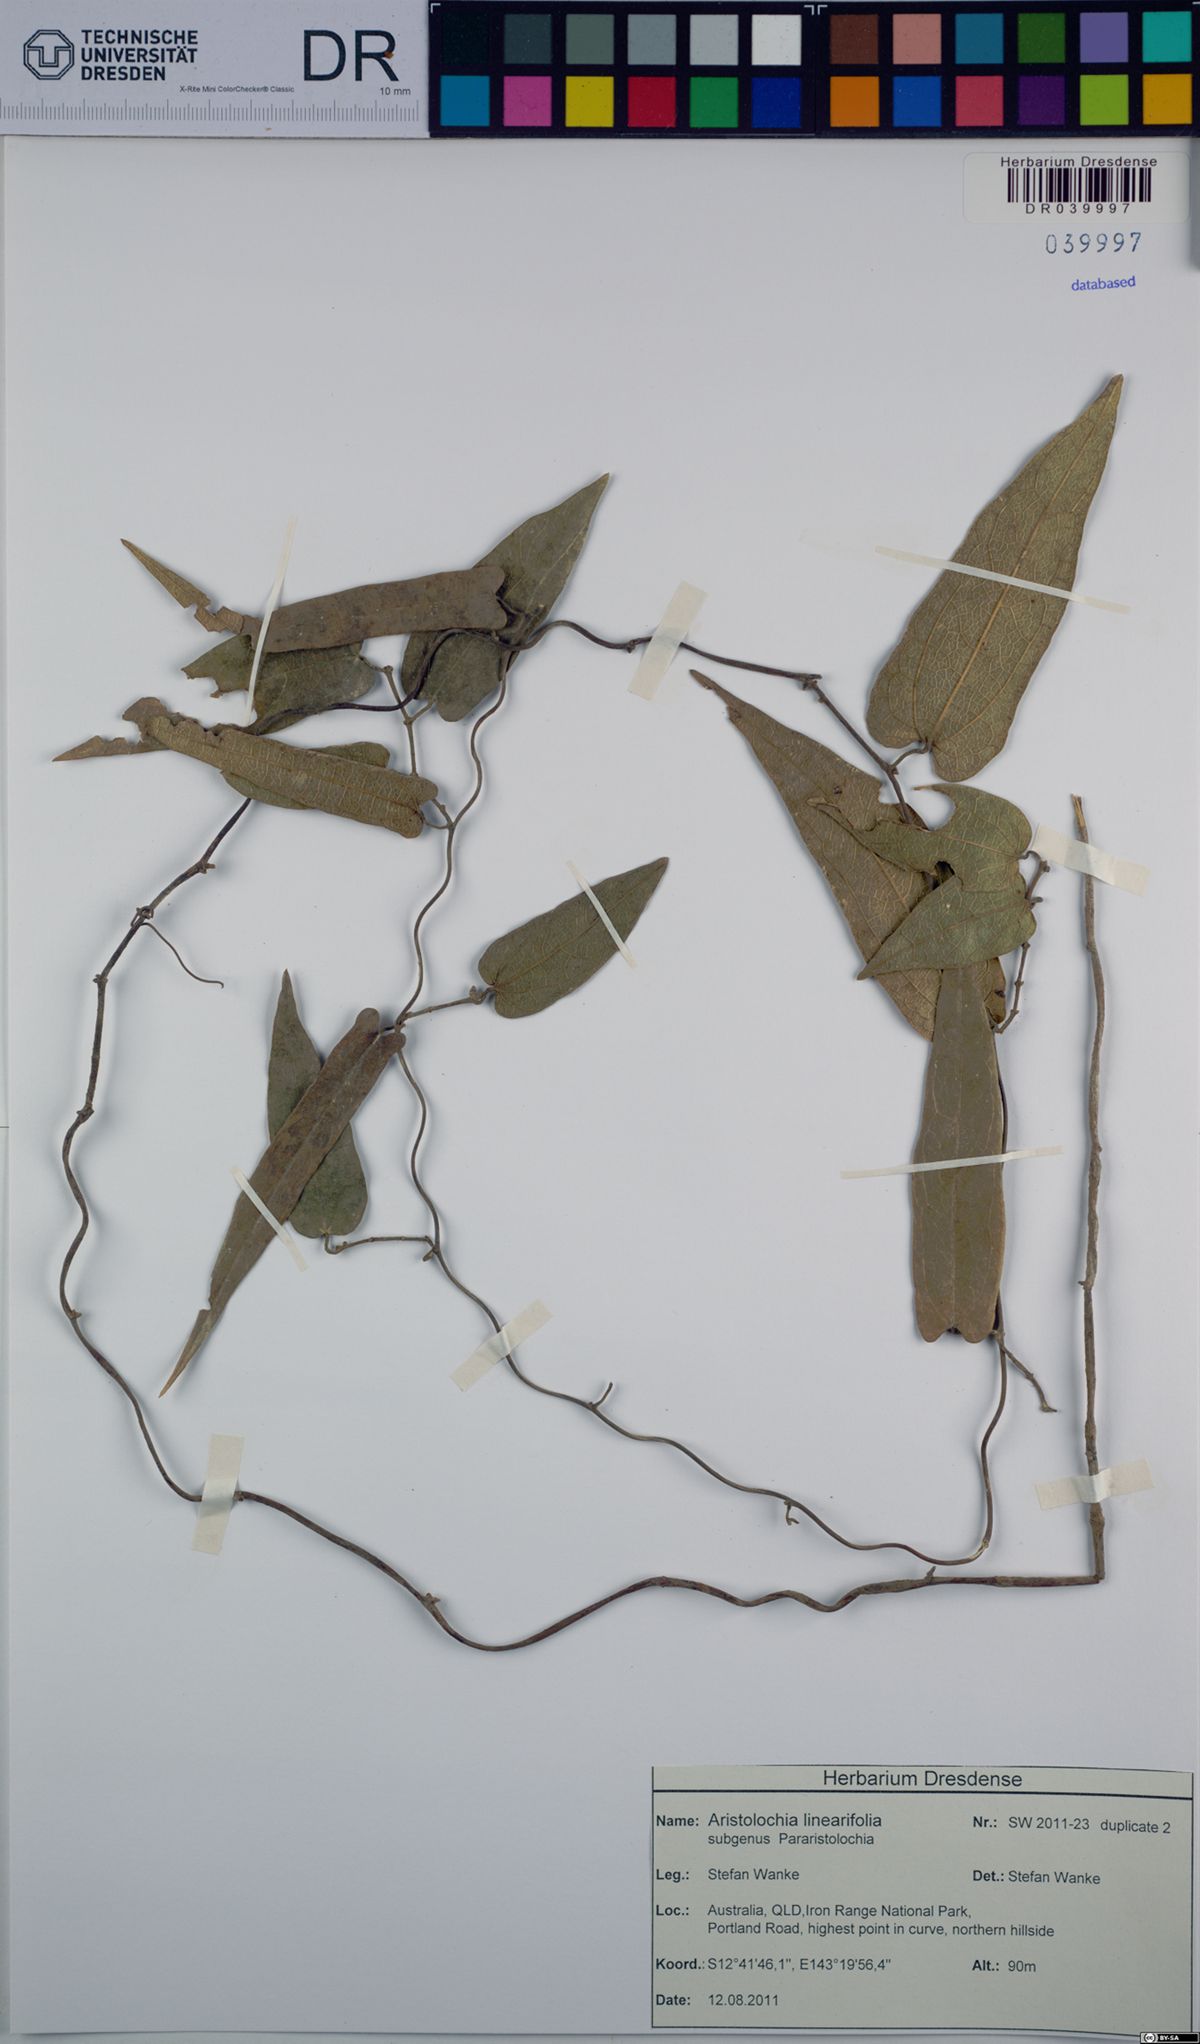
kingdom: Plantae
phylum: Tracheophyta
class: Magnoliopsida
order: Piperales
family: Aristolochiaceae
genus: Aristolochia
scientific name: Aristolochia linearifolia
